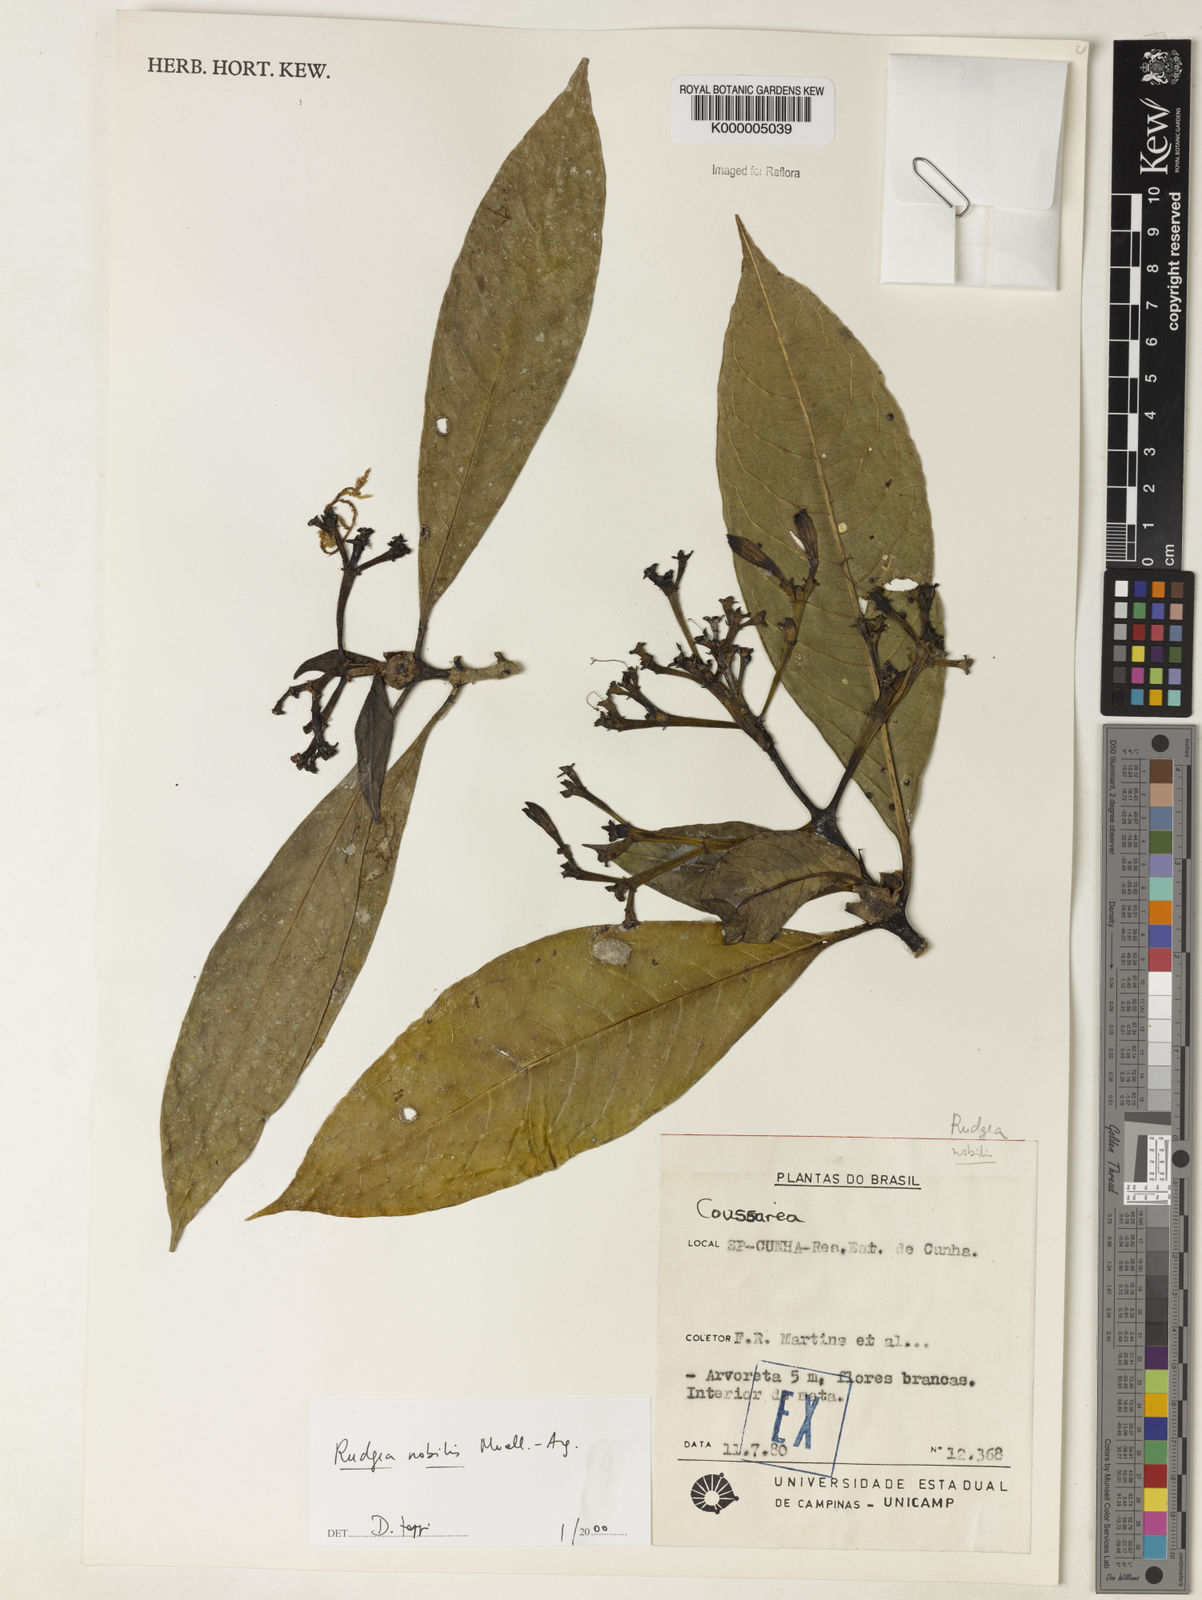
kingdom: Plantae
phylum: Tracheophyta
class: Magnoliopsida
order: Gentianales
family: Rubiaceae
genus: Rudgea
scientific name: Rudgea nobilis
